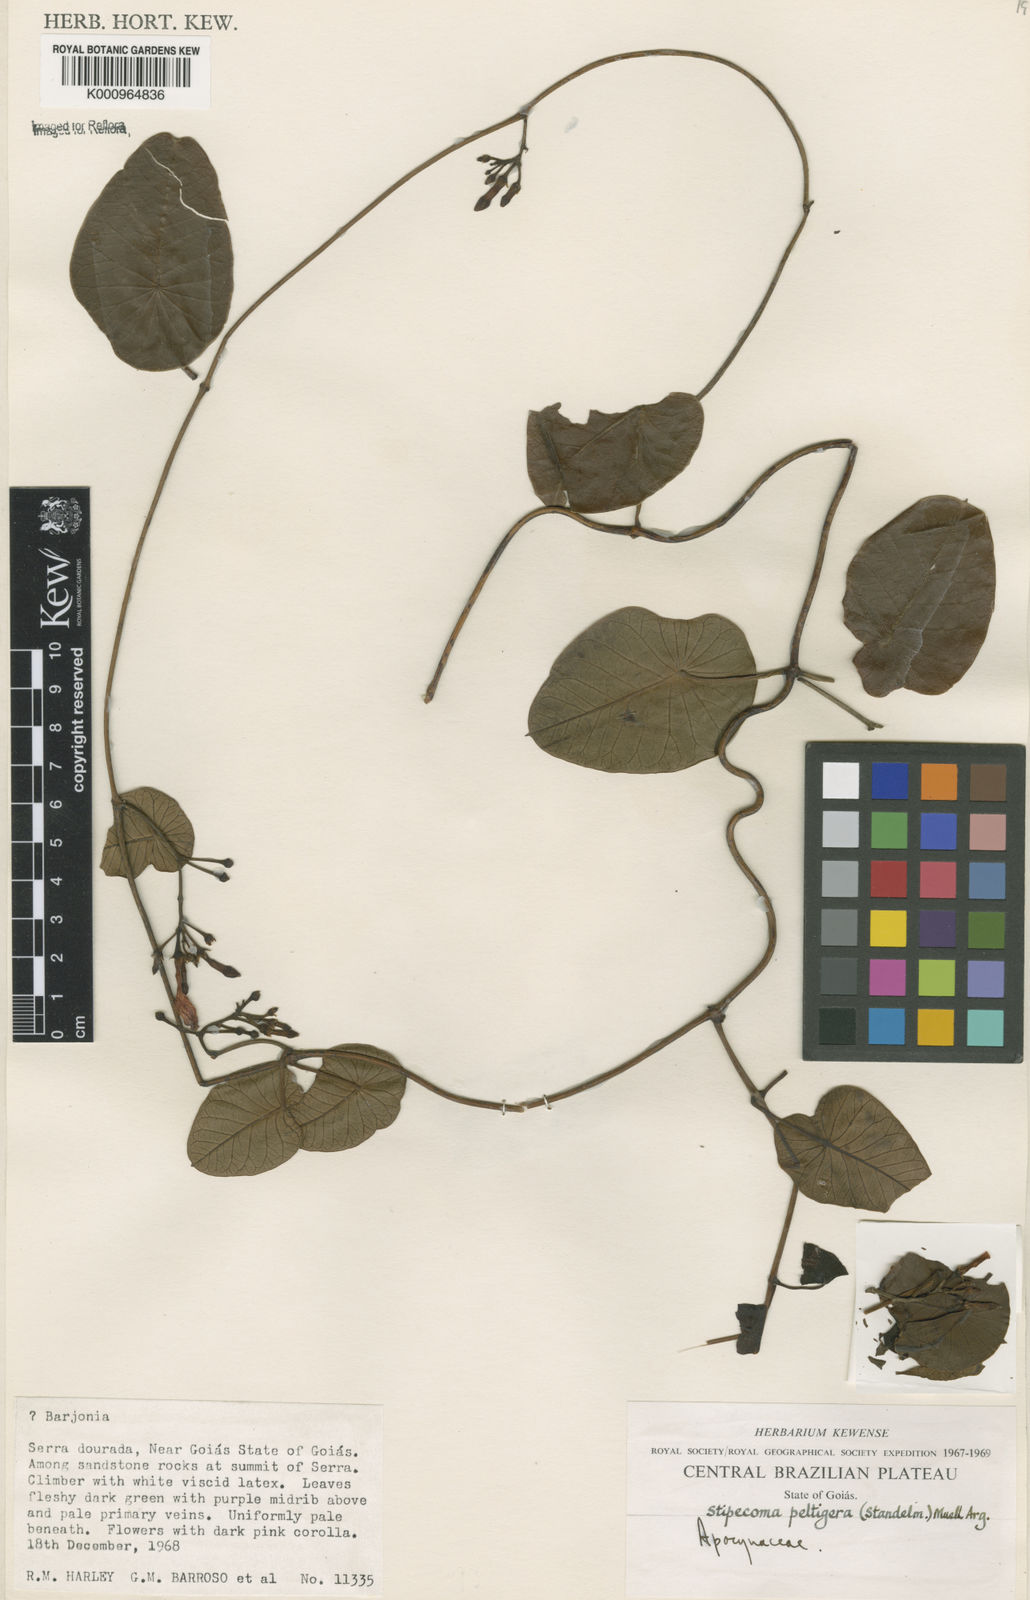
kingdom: Plantae
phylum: Tracheophyta
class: Magnoliopsida
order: Gentianales
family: Apocynaceae
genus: Stipecoma
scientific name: Stipecoma
